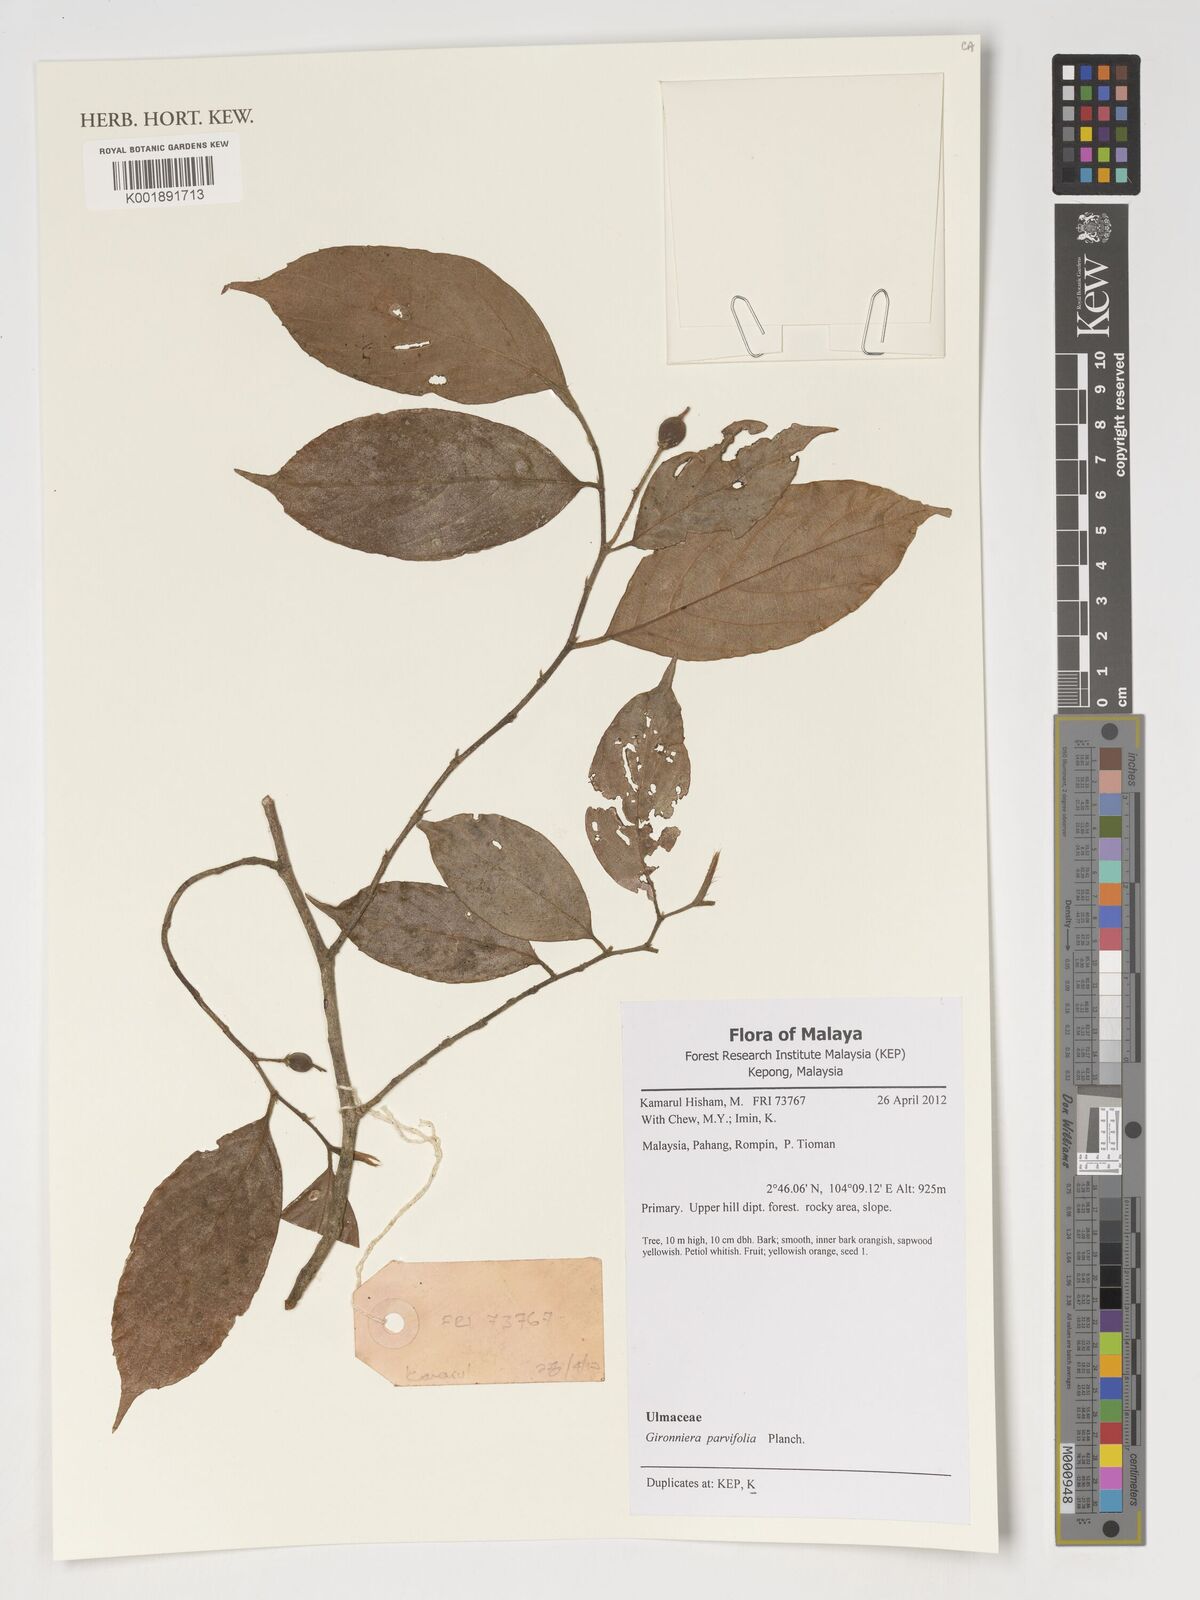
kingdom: Plantae
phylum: Tracheophyta
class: Magnoliopsida
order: Rosales
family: Cannabaceae
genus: Gironniera
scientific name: Gironniera parvifolia
